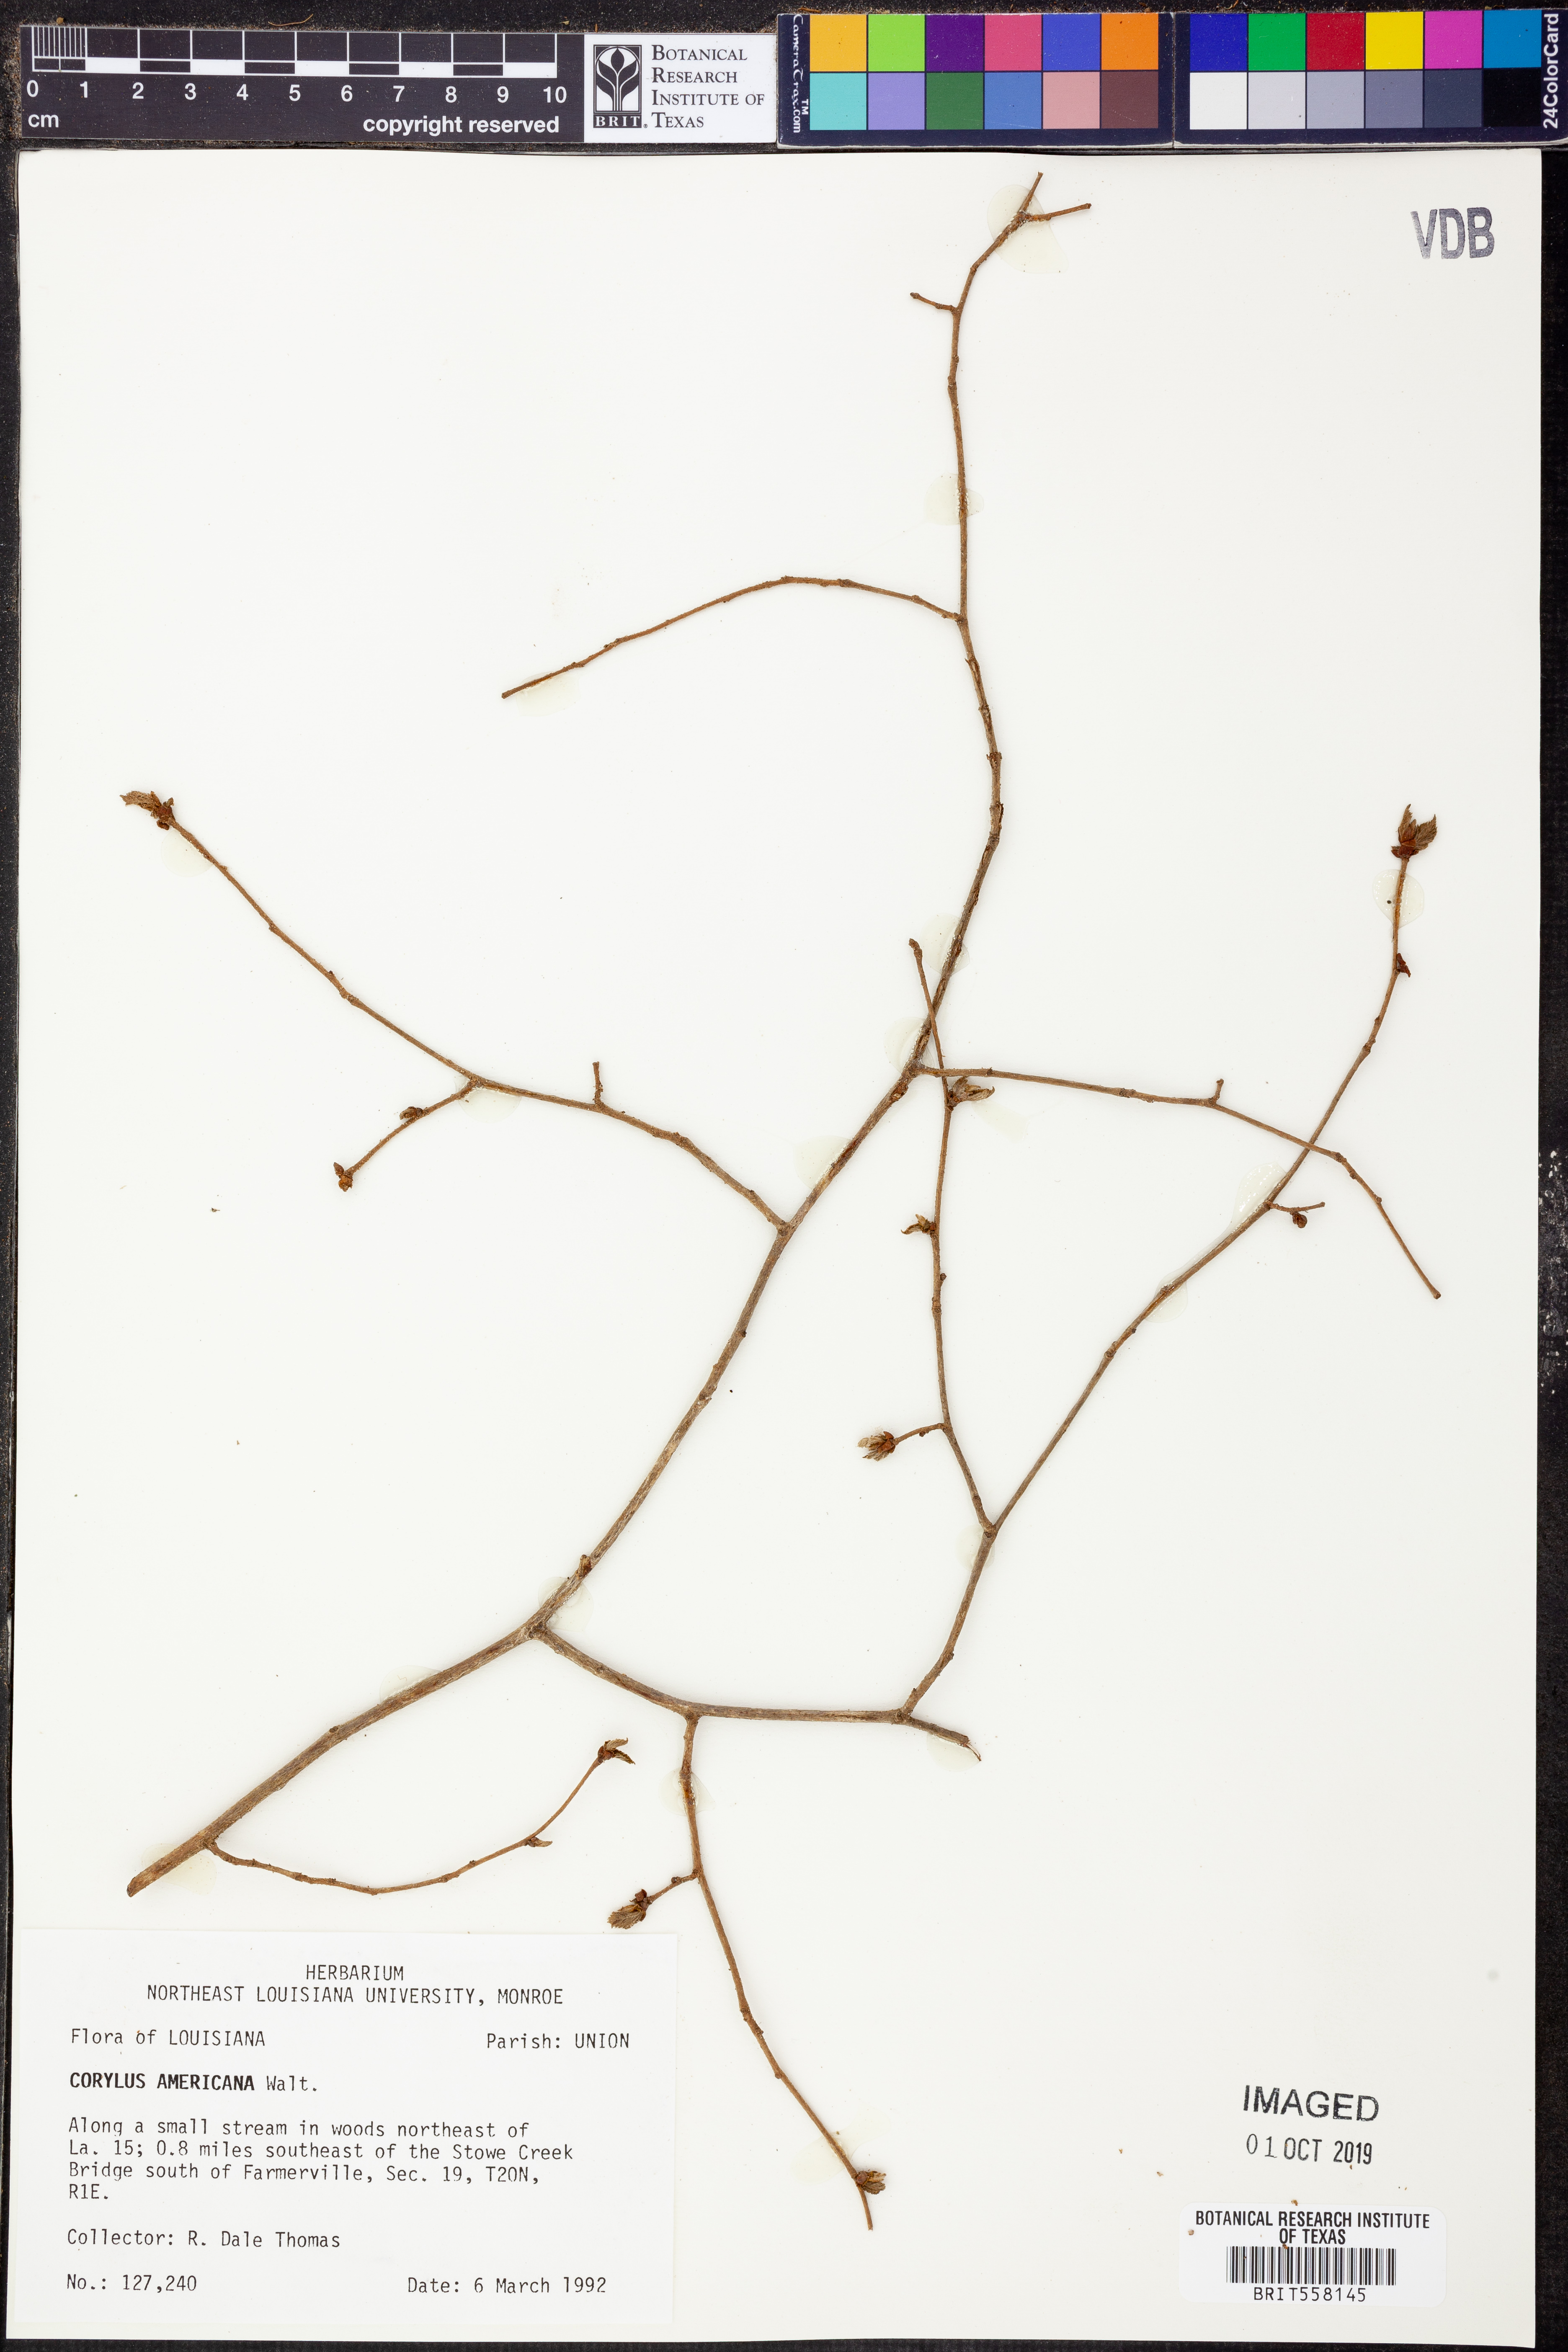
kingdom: Plantae
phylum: Tracheophyta
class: Magnoliopsida
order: Fagales
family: Betulaceae
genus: Corylus
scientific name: Corylus americana
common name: American hazel
